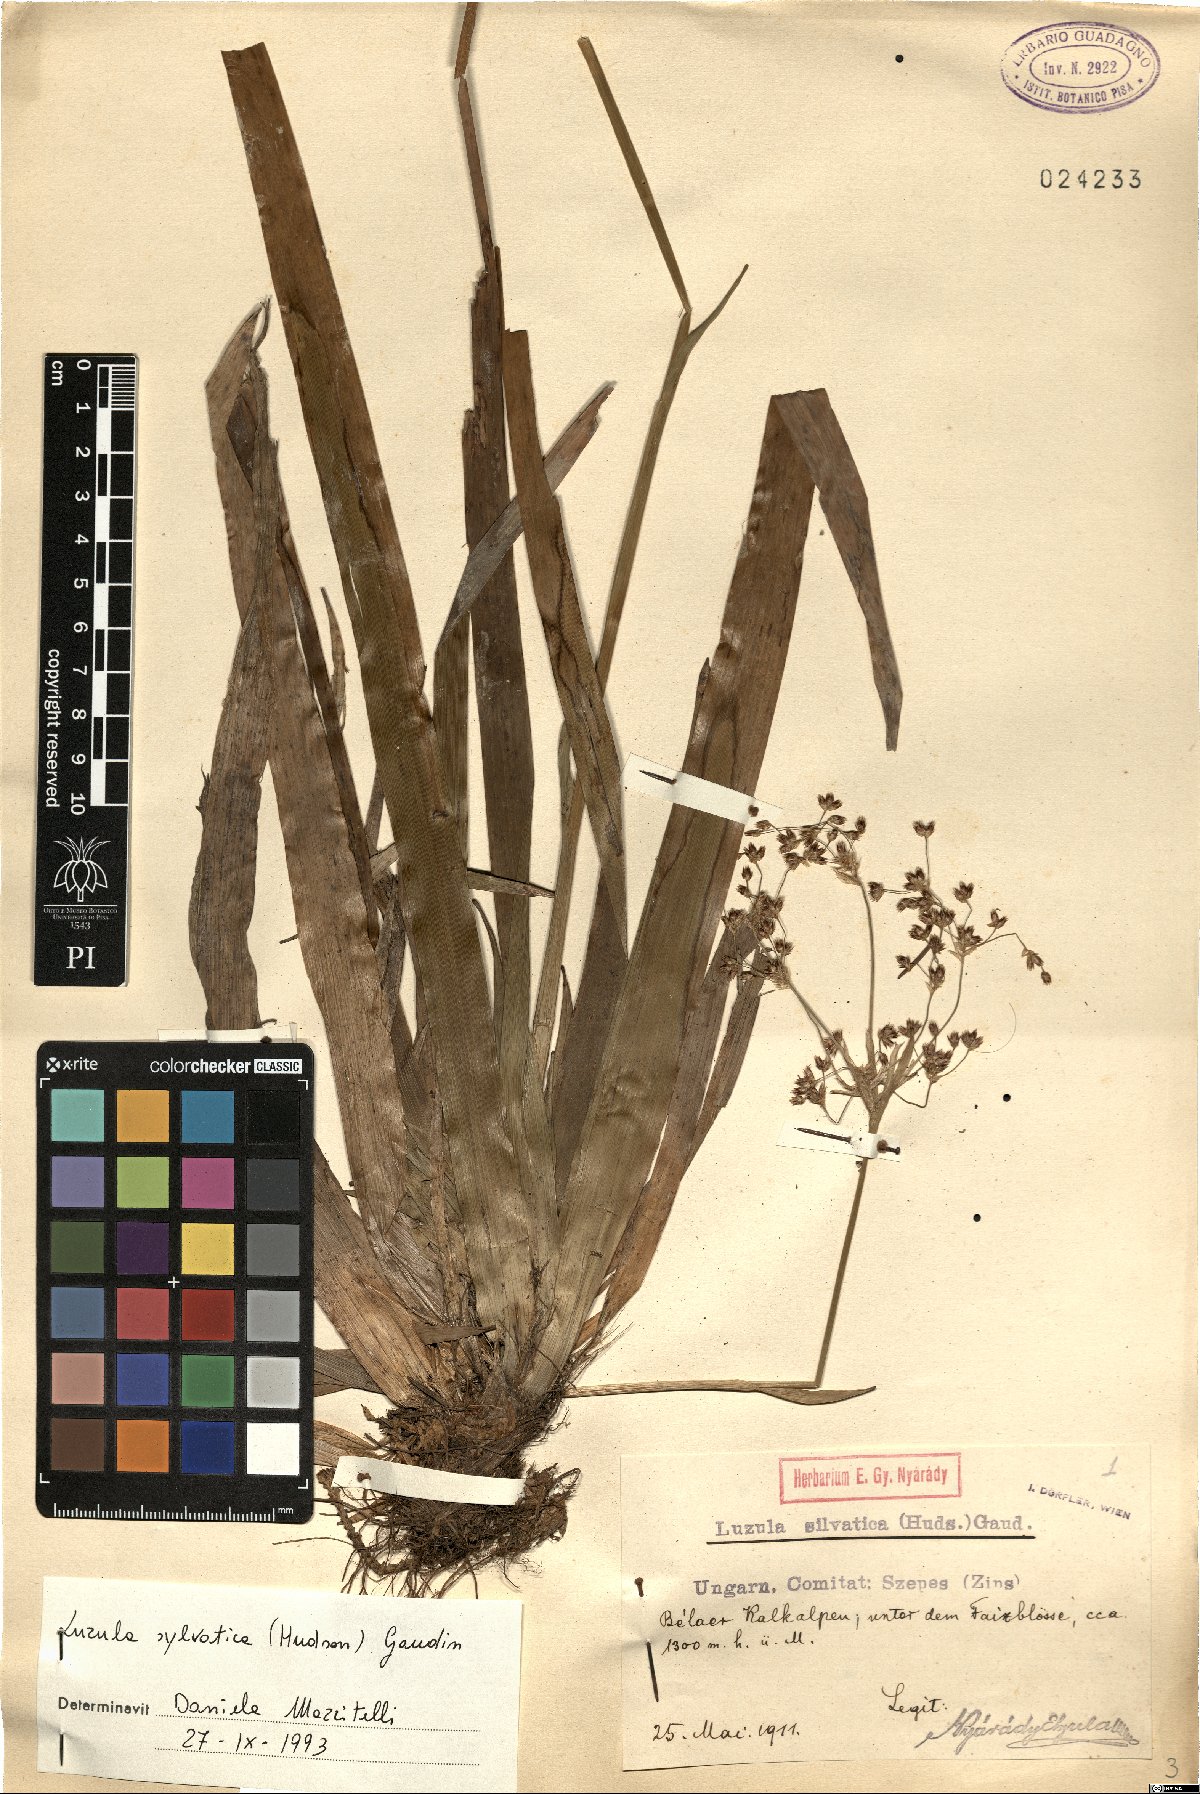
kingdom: Plantae
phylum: Tracheophyta
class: Liliopsida
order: Poales
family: Juncaceae
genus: Luzula
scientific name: Luzula sylvatica
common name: Great wood-rush
